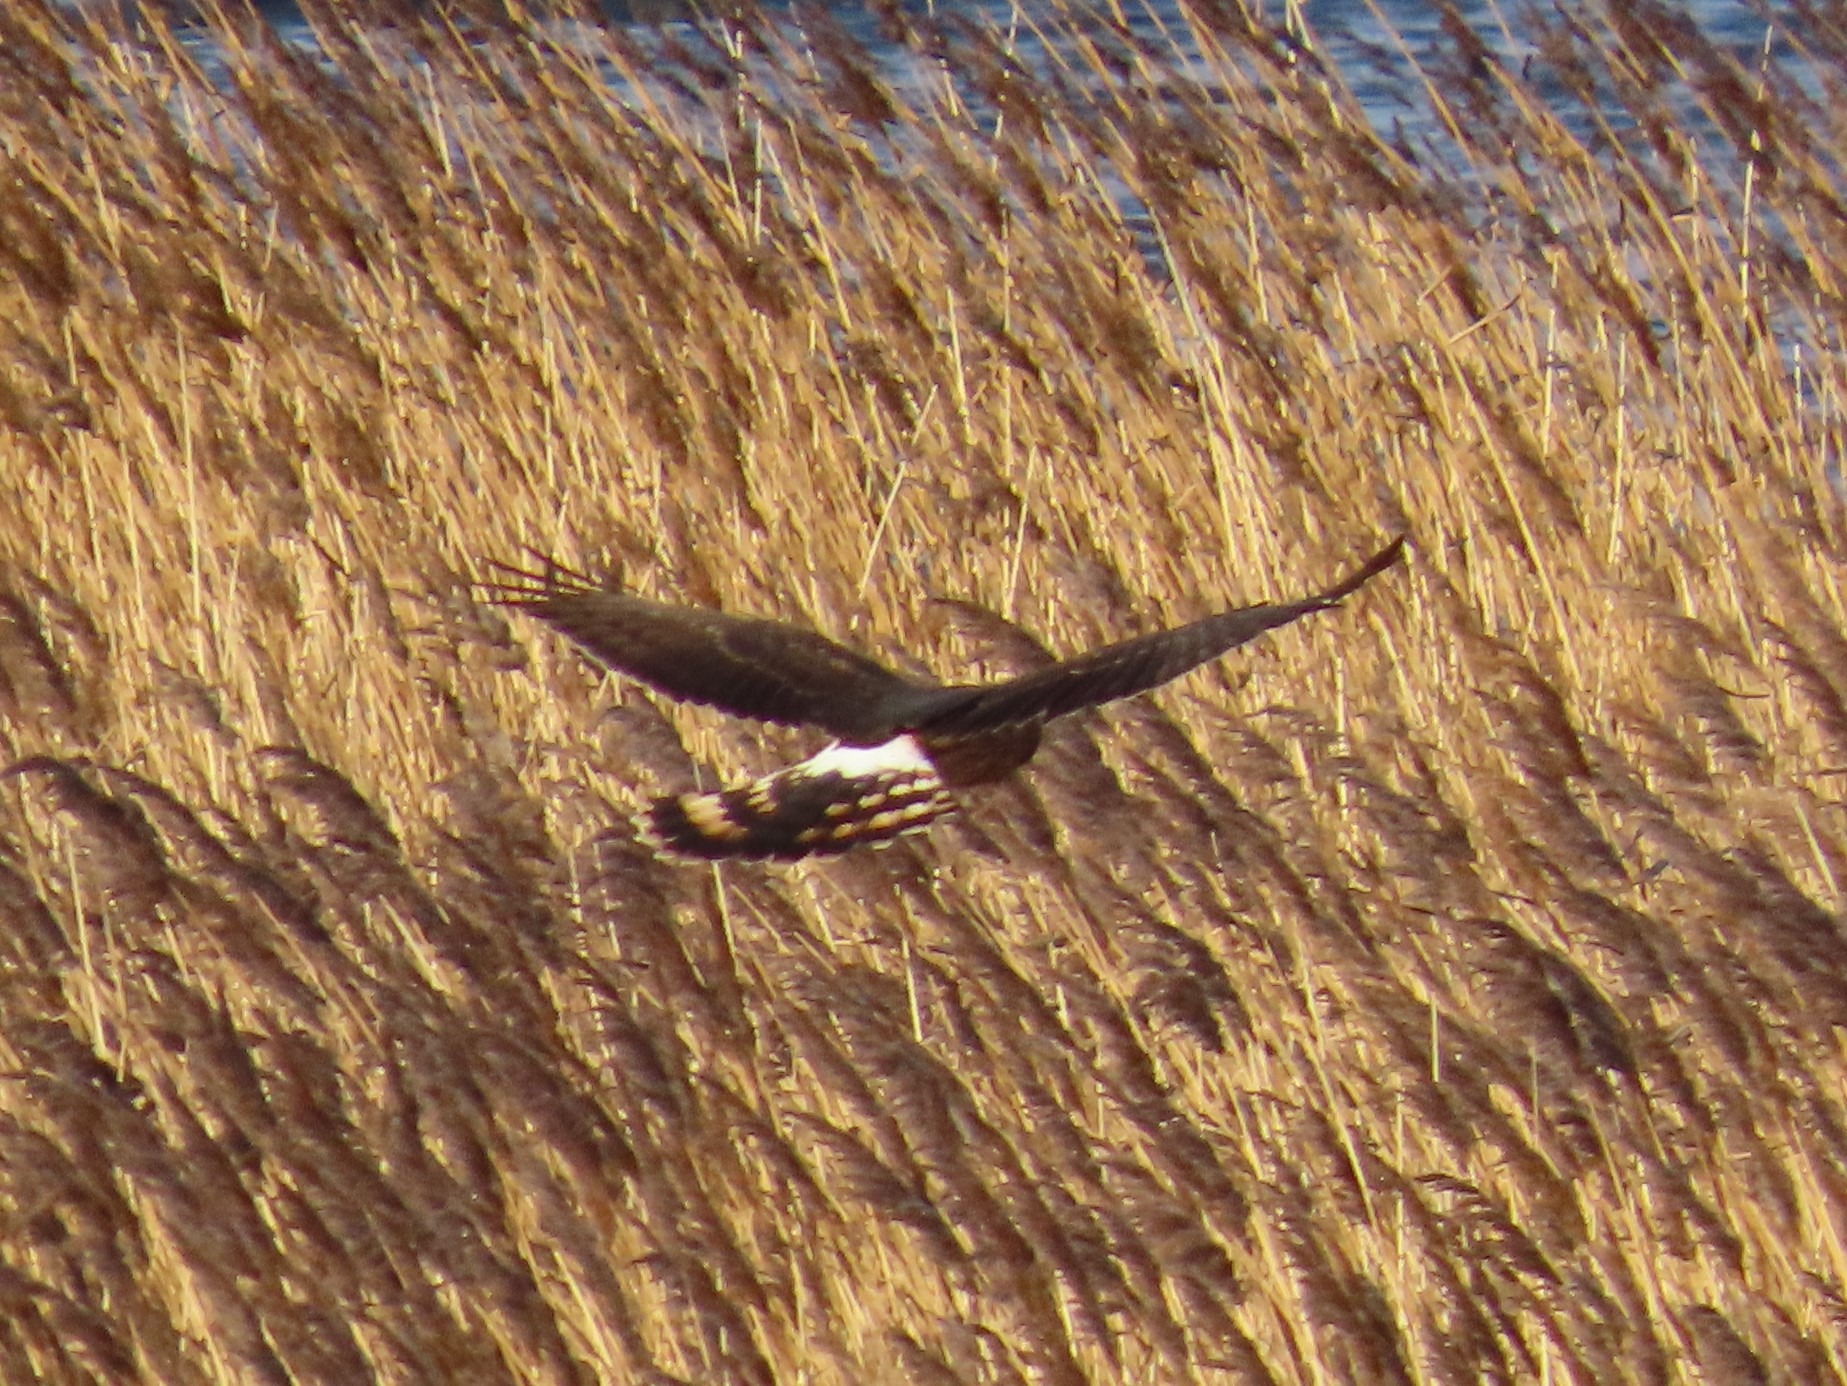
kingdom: Animalia
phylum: Chordata
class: Aves
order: Accipitriformes
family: Accipitridae
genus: Circus
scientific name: Circus cyaneus
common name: Blå kærhøg
